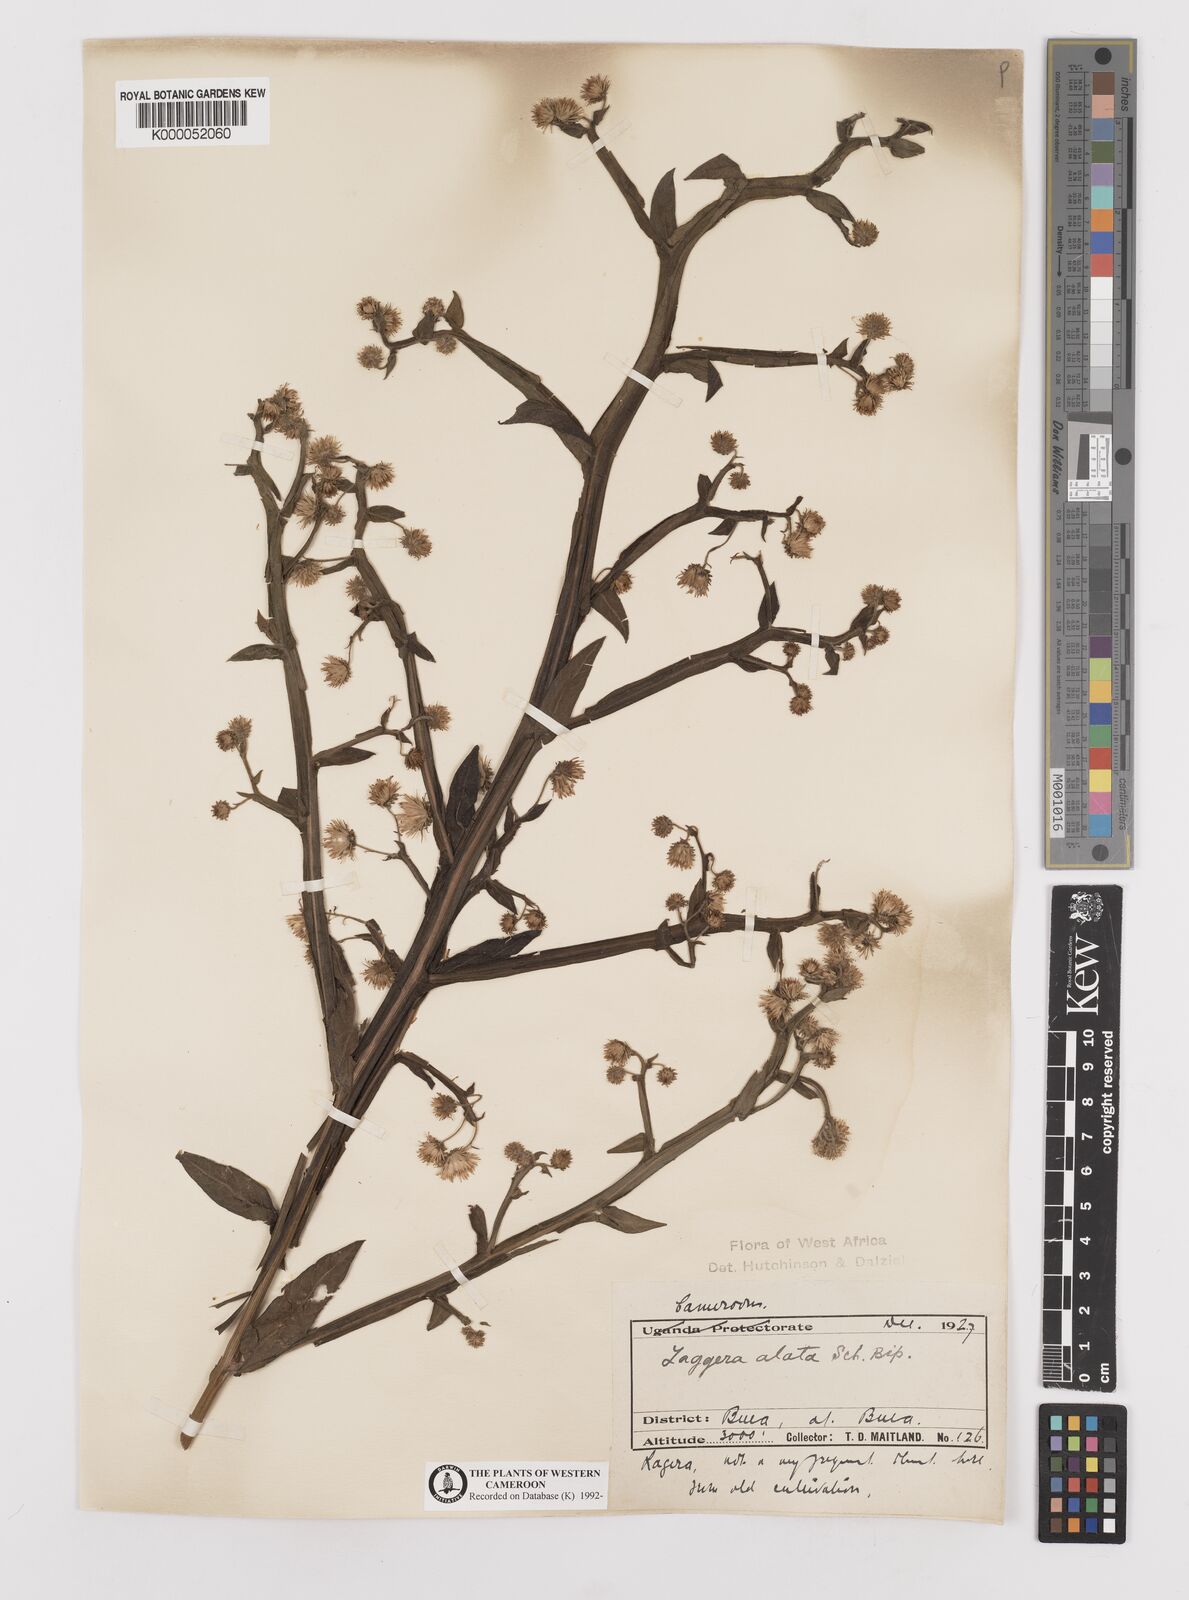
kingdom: Plantae
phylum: Tracheophyta
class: Magnoliopsida
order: Asterales
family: Asteraceae
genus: Laggera
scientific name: Laggera crispata
